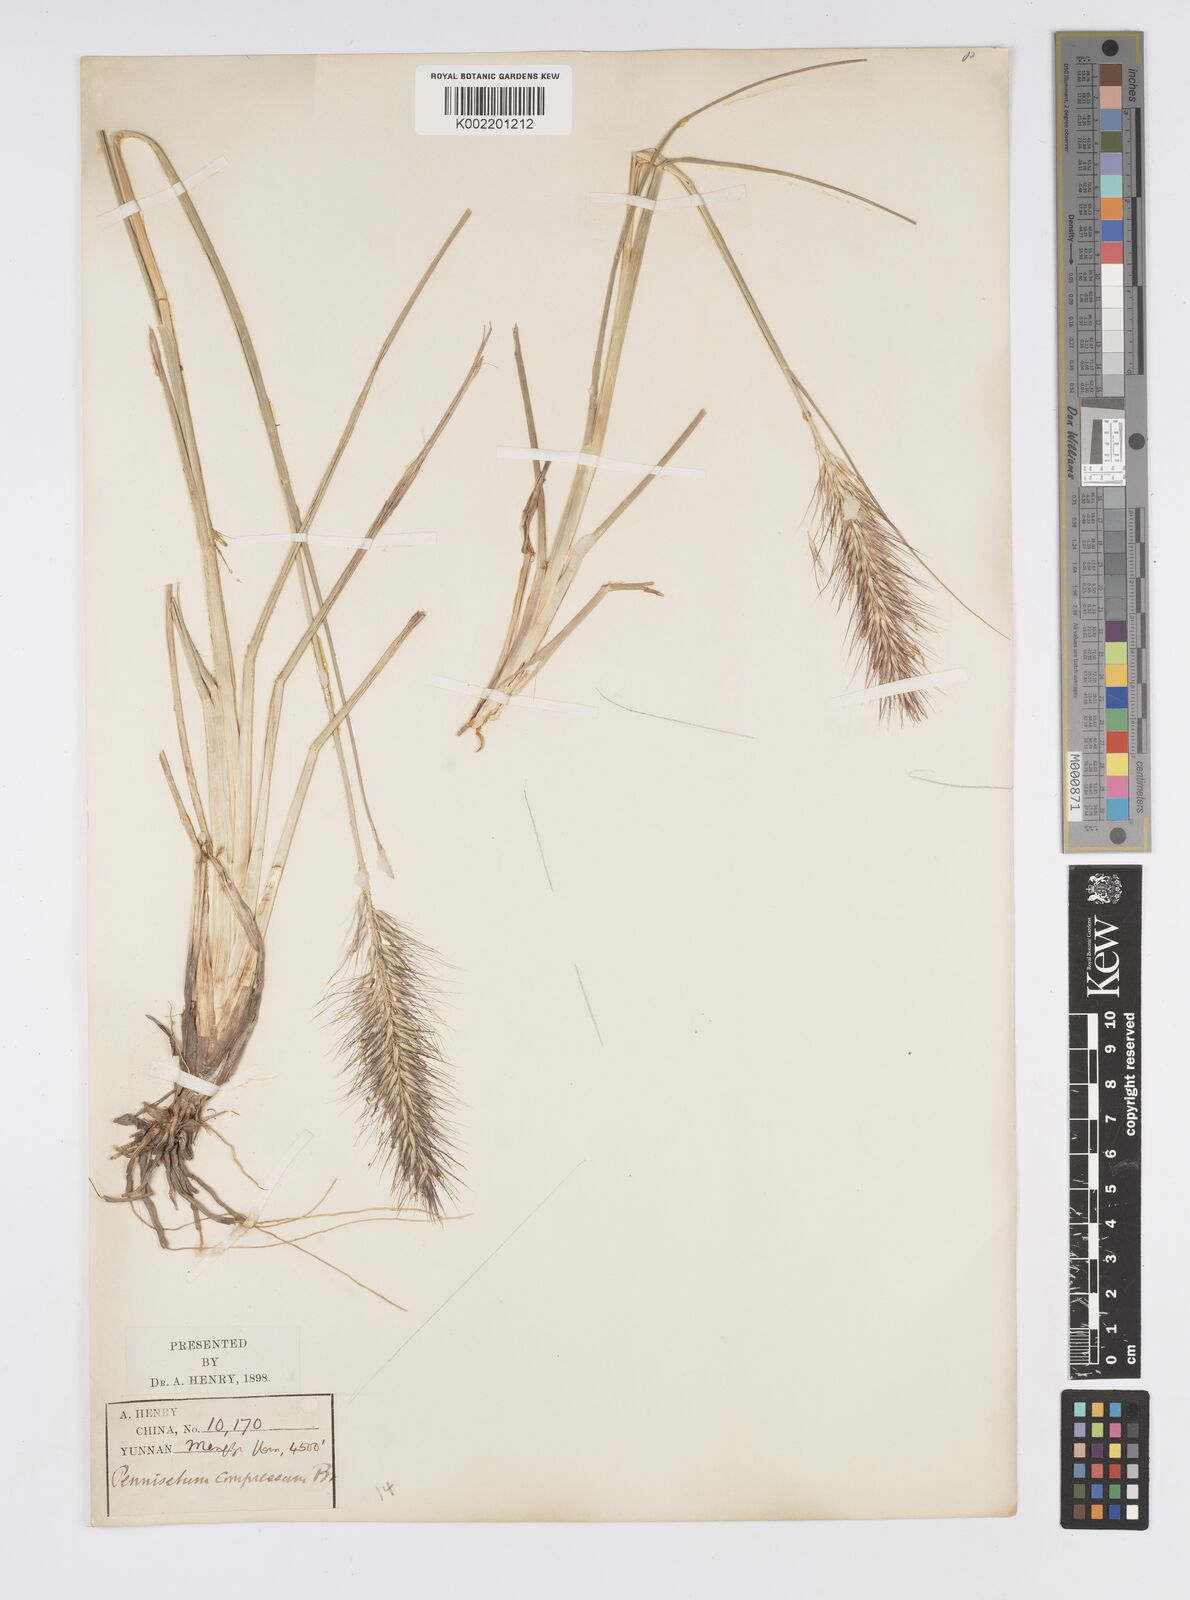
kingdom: Plantae
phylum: Tracheophyta
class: Liliopsida
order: Poales
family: Poaceae
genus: Cenchrus
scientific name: Cenchrus alopecuroides
